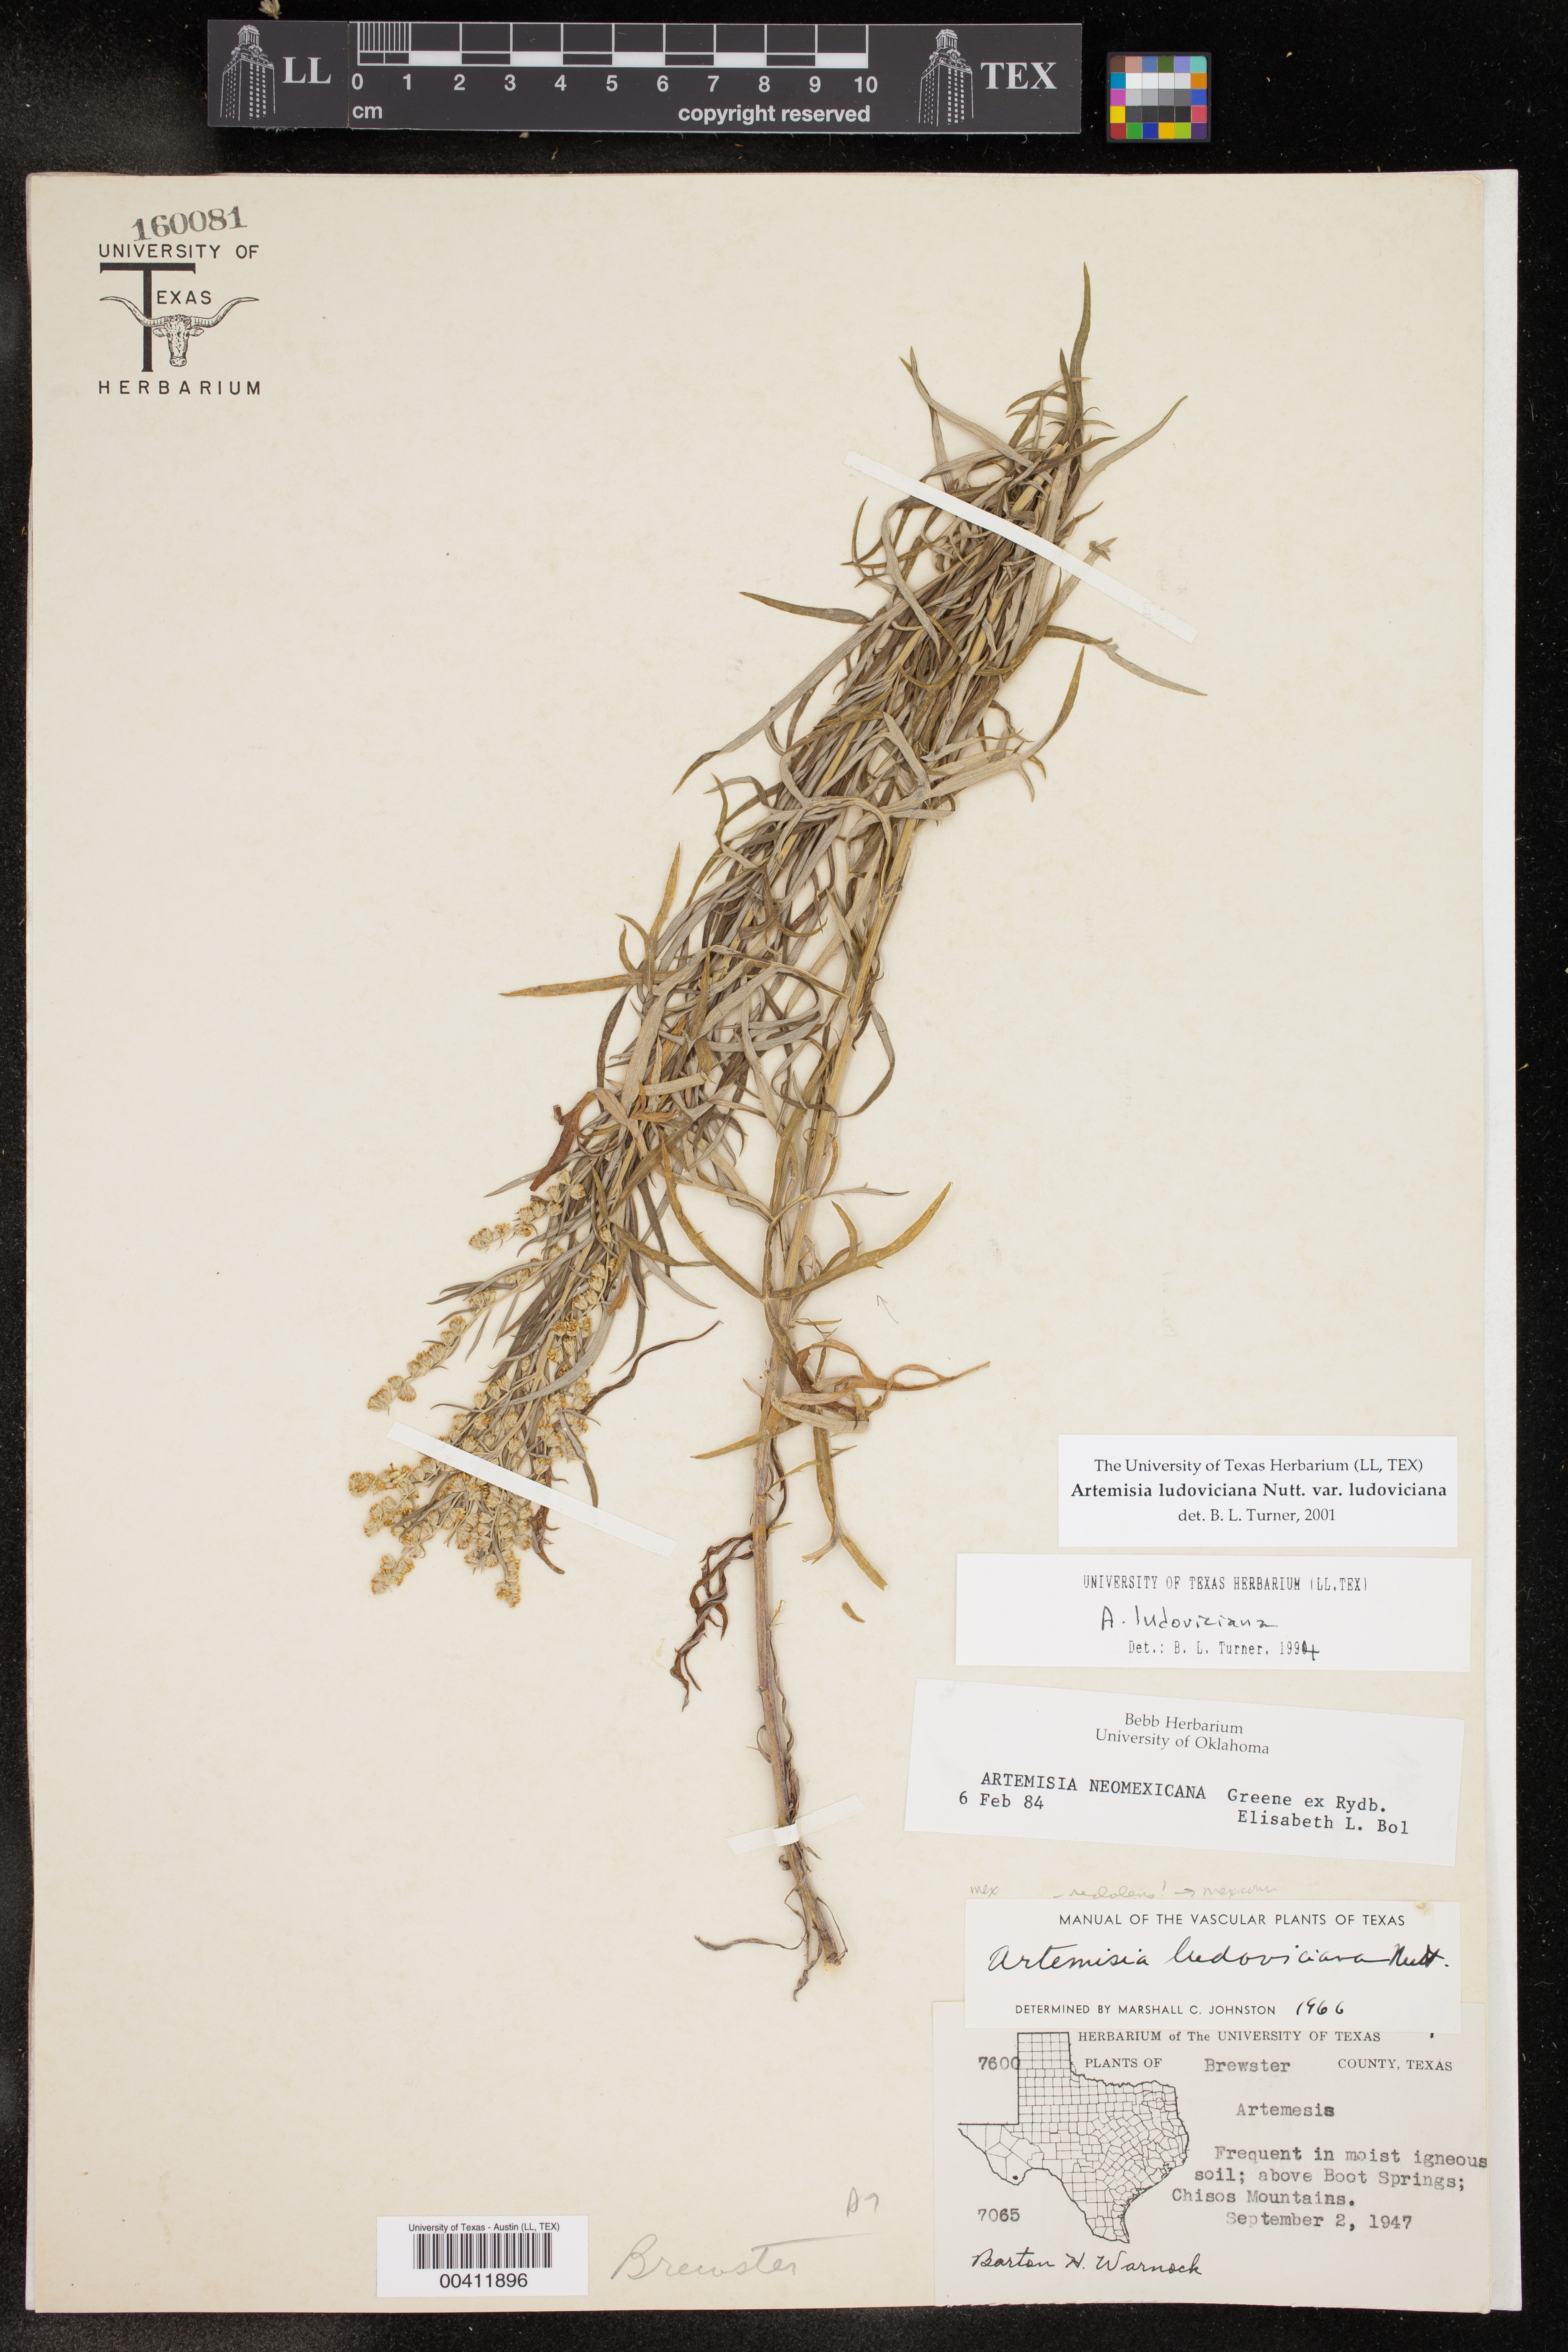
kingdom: Plantae
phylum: Tracheophyta
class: Magnoliopsida
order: Asterales
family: Asteraceae
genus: Artemisia
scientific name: Artemisia ludoviciana
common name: Western mugwort
